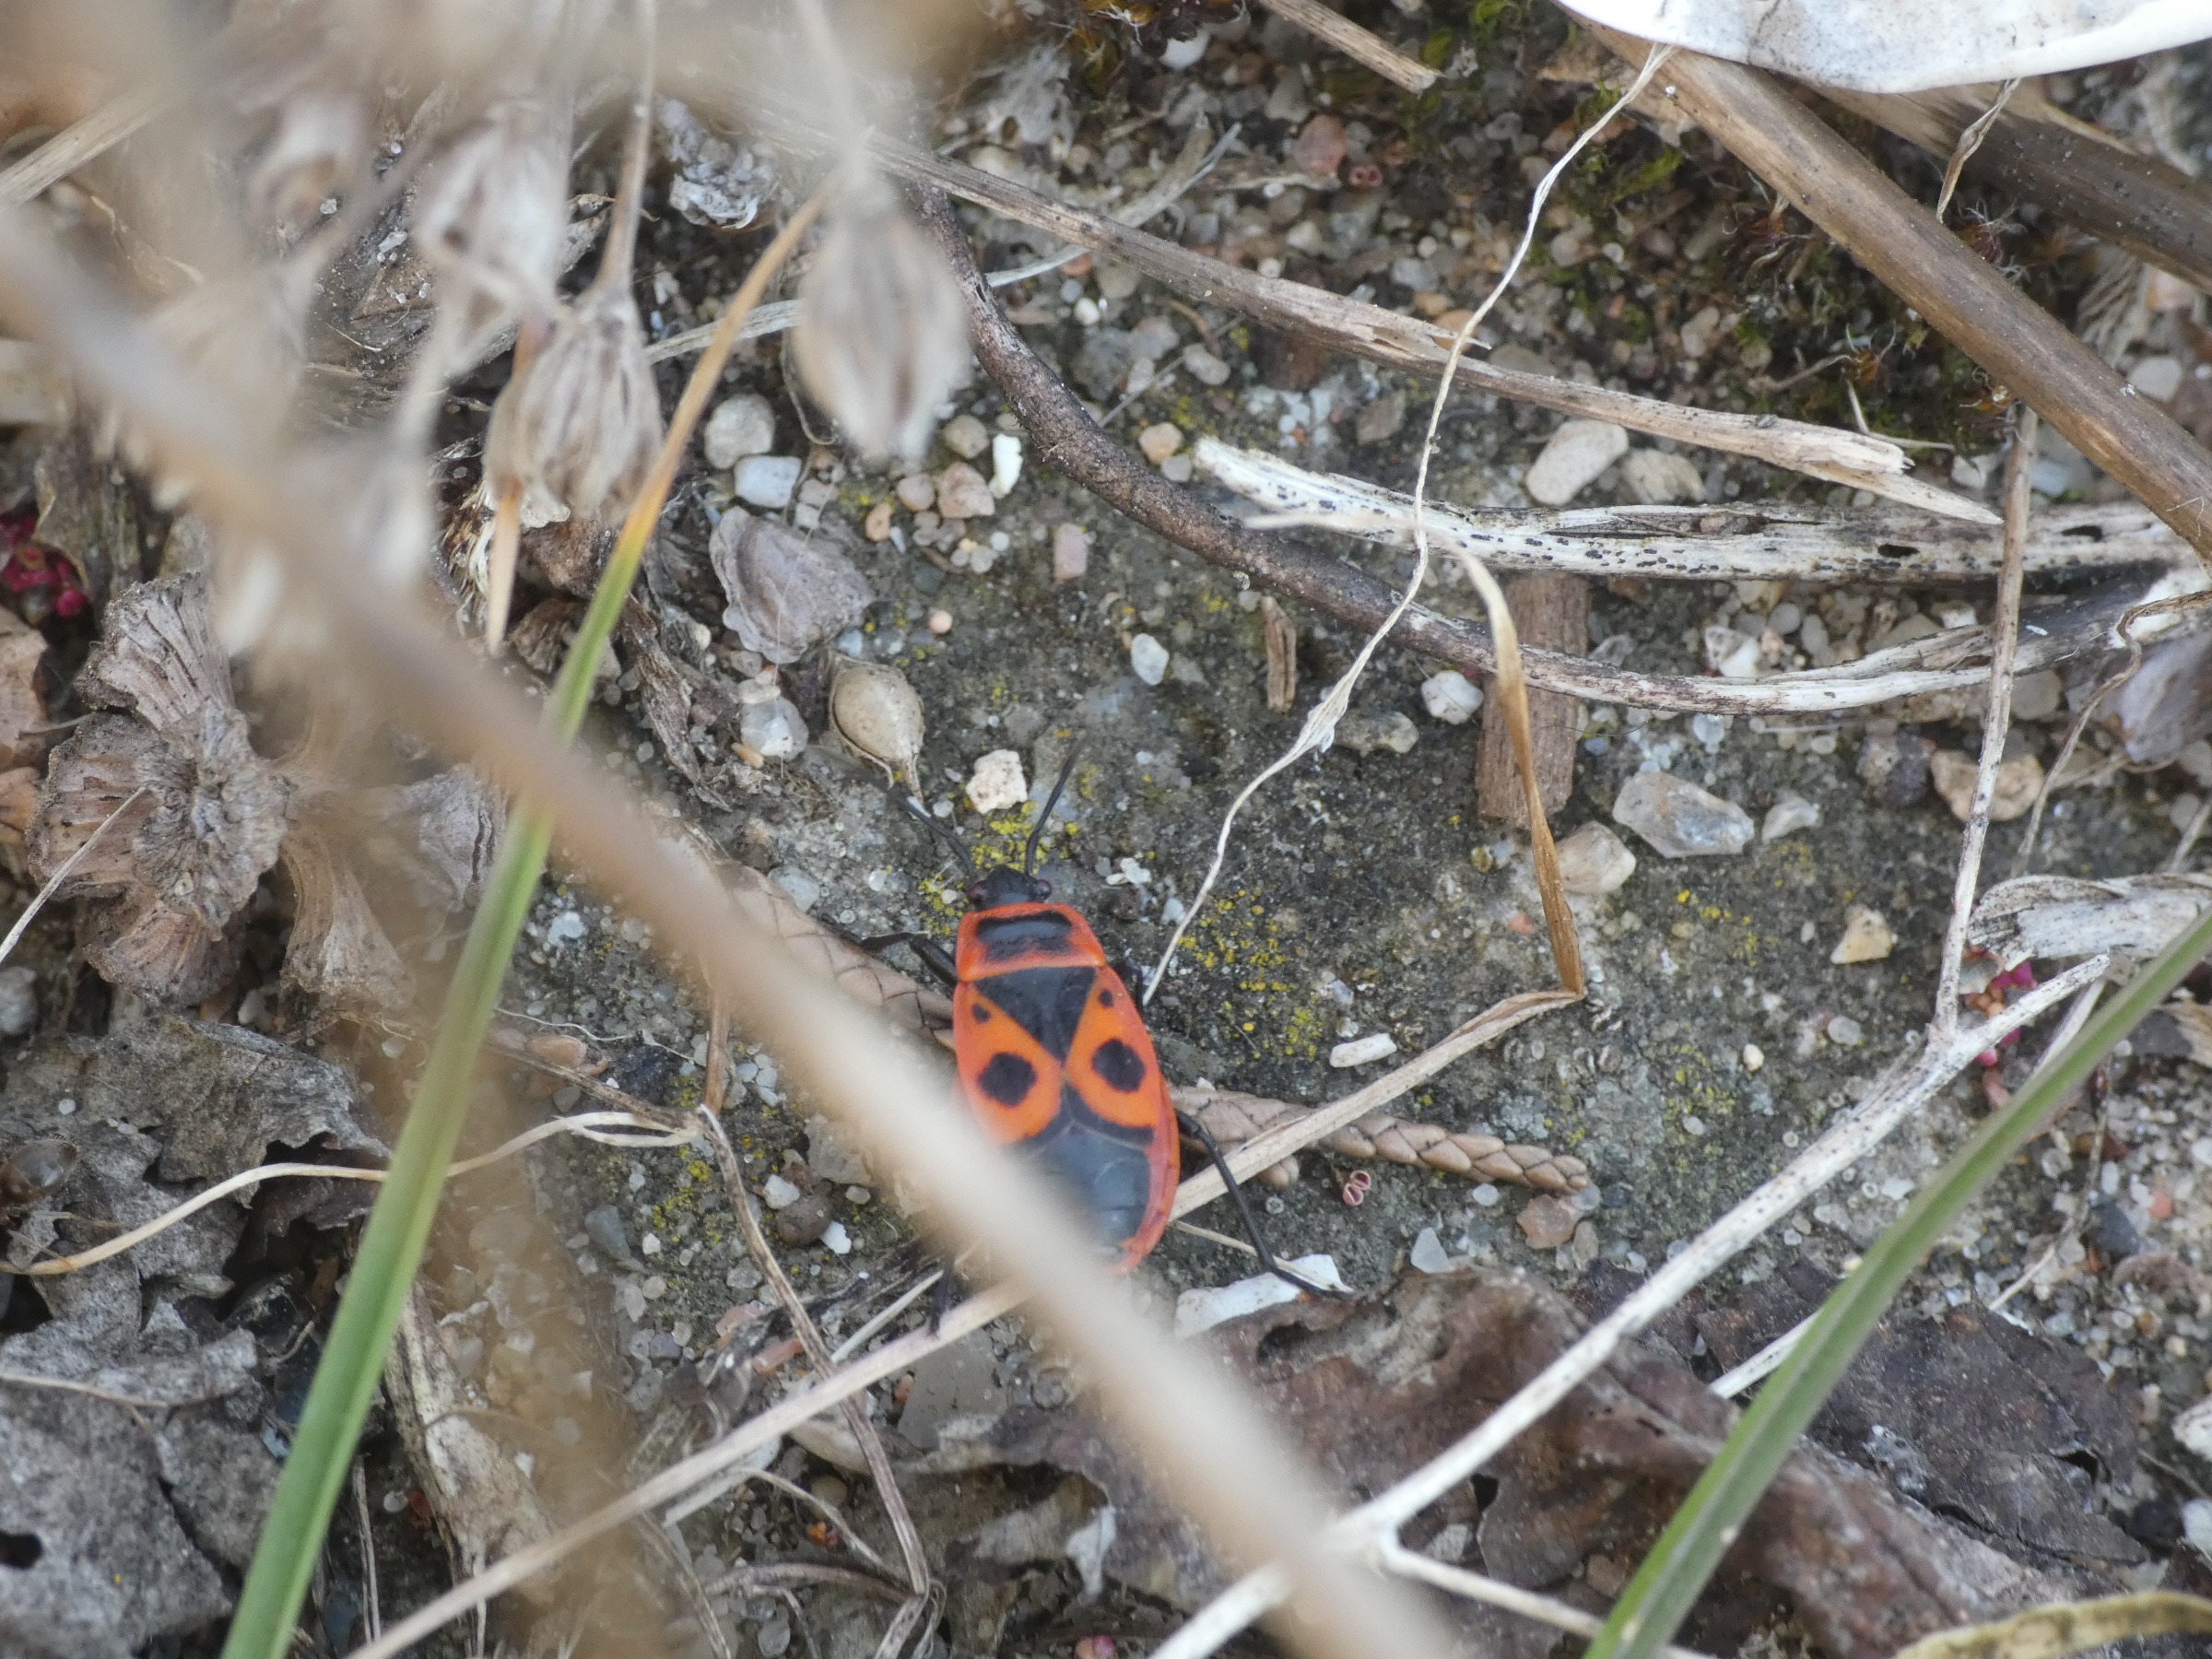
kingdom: Animalia
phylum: Arthropoda
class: Insecta
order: Hemiptera
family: Pyrrhocoridae
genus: Pyrrhocoris
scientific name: Pyrrhocoris apterus
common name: Ildtæge
